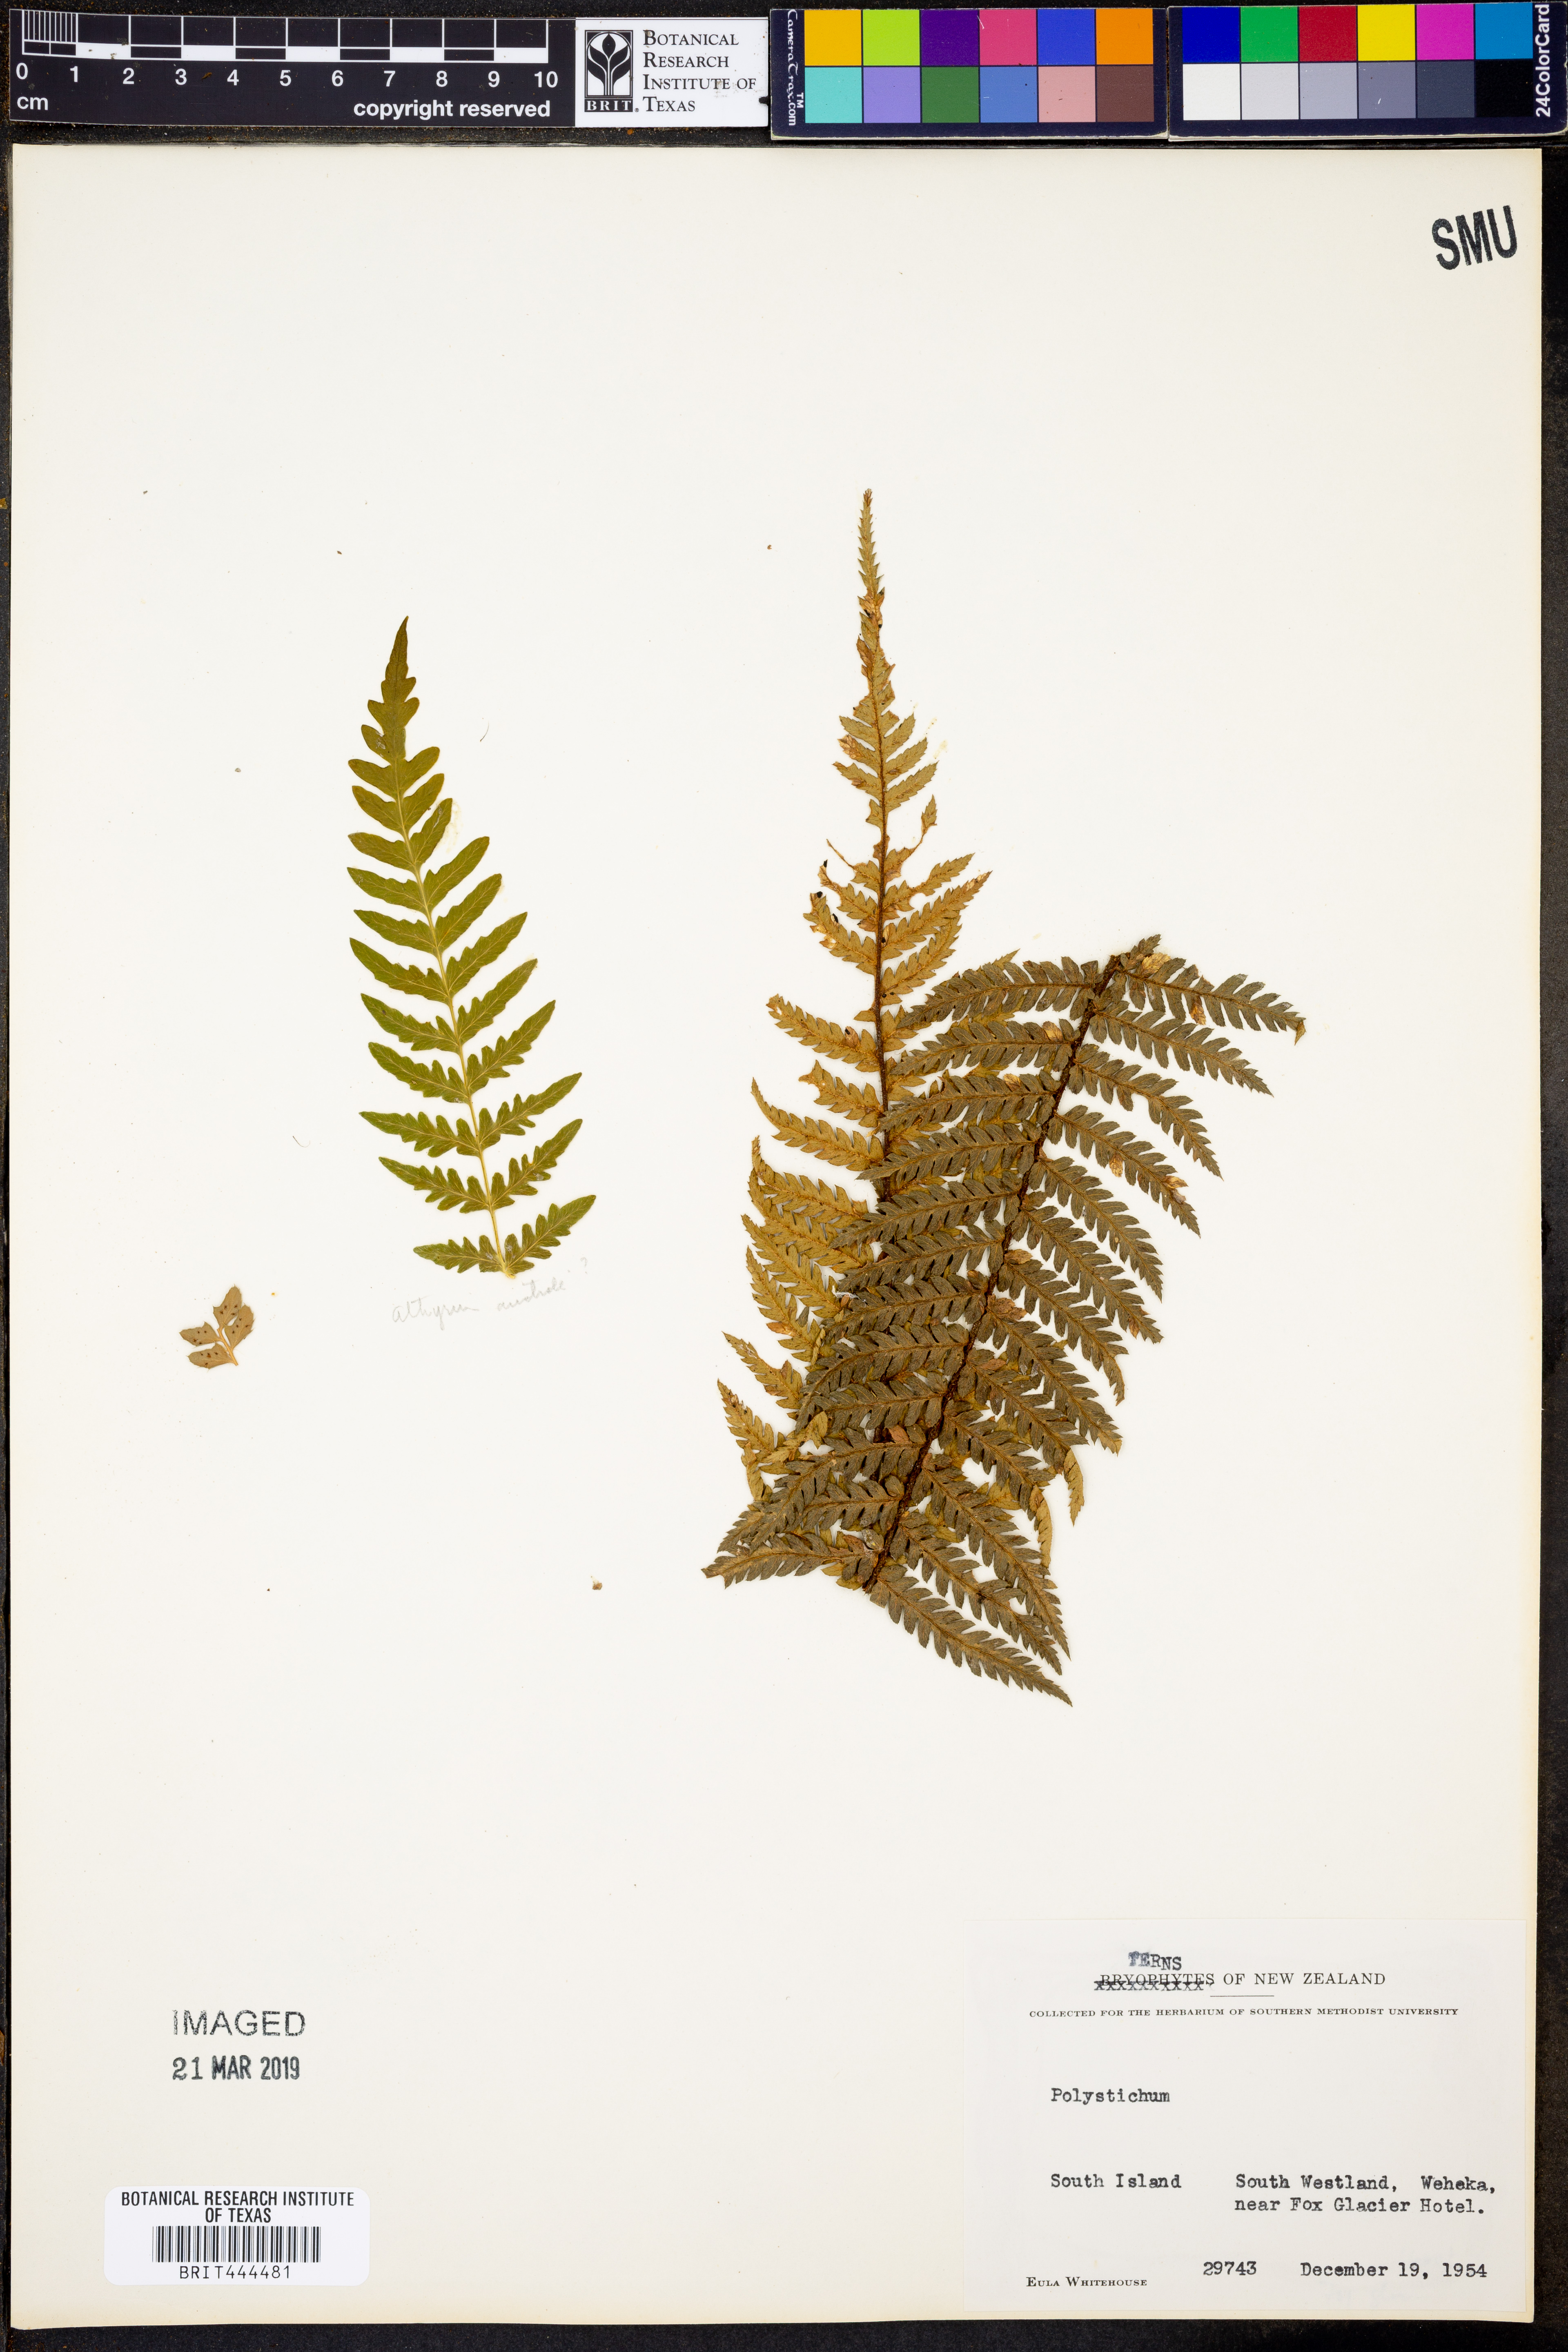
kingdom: Plantae
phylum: Tracheophyta
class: Polypodiopsida
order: Polypodiales
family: Dryopteridaceae
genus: Polystichum
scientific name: Polystichum
